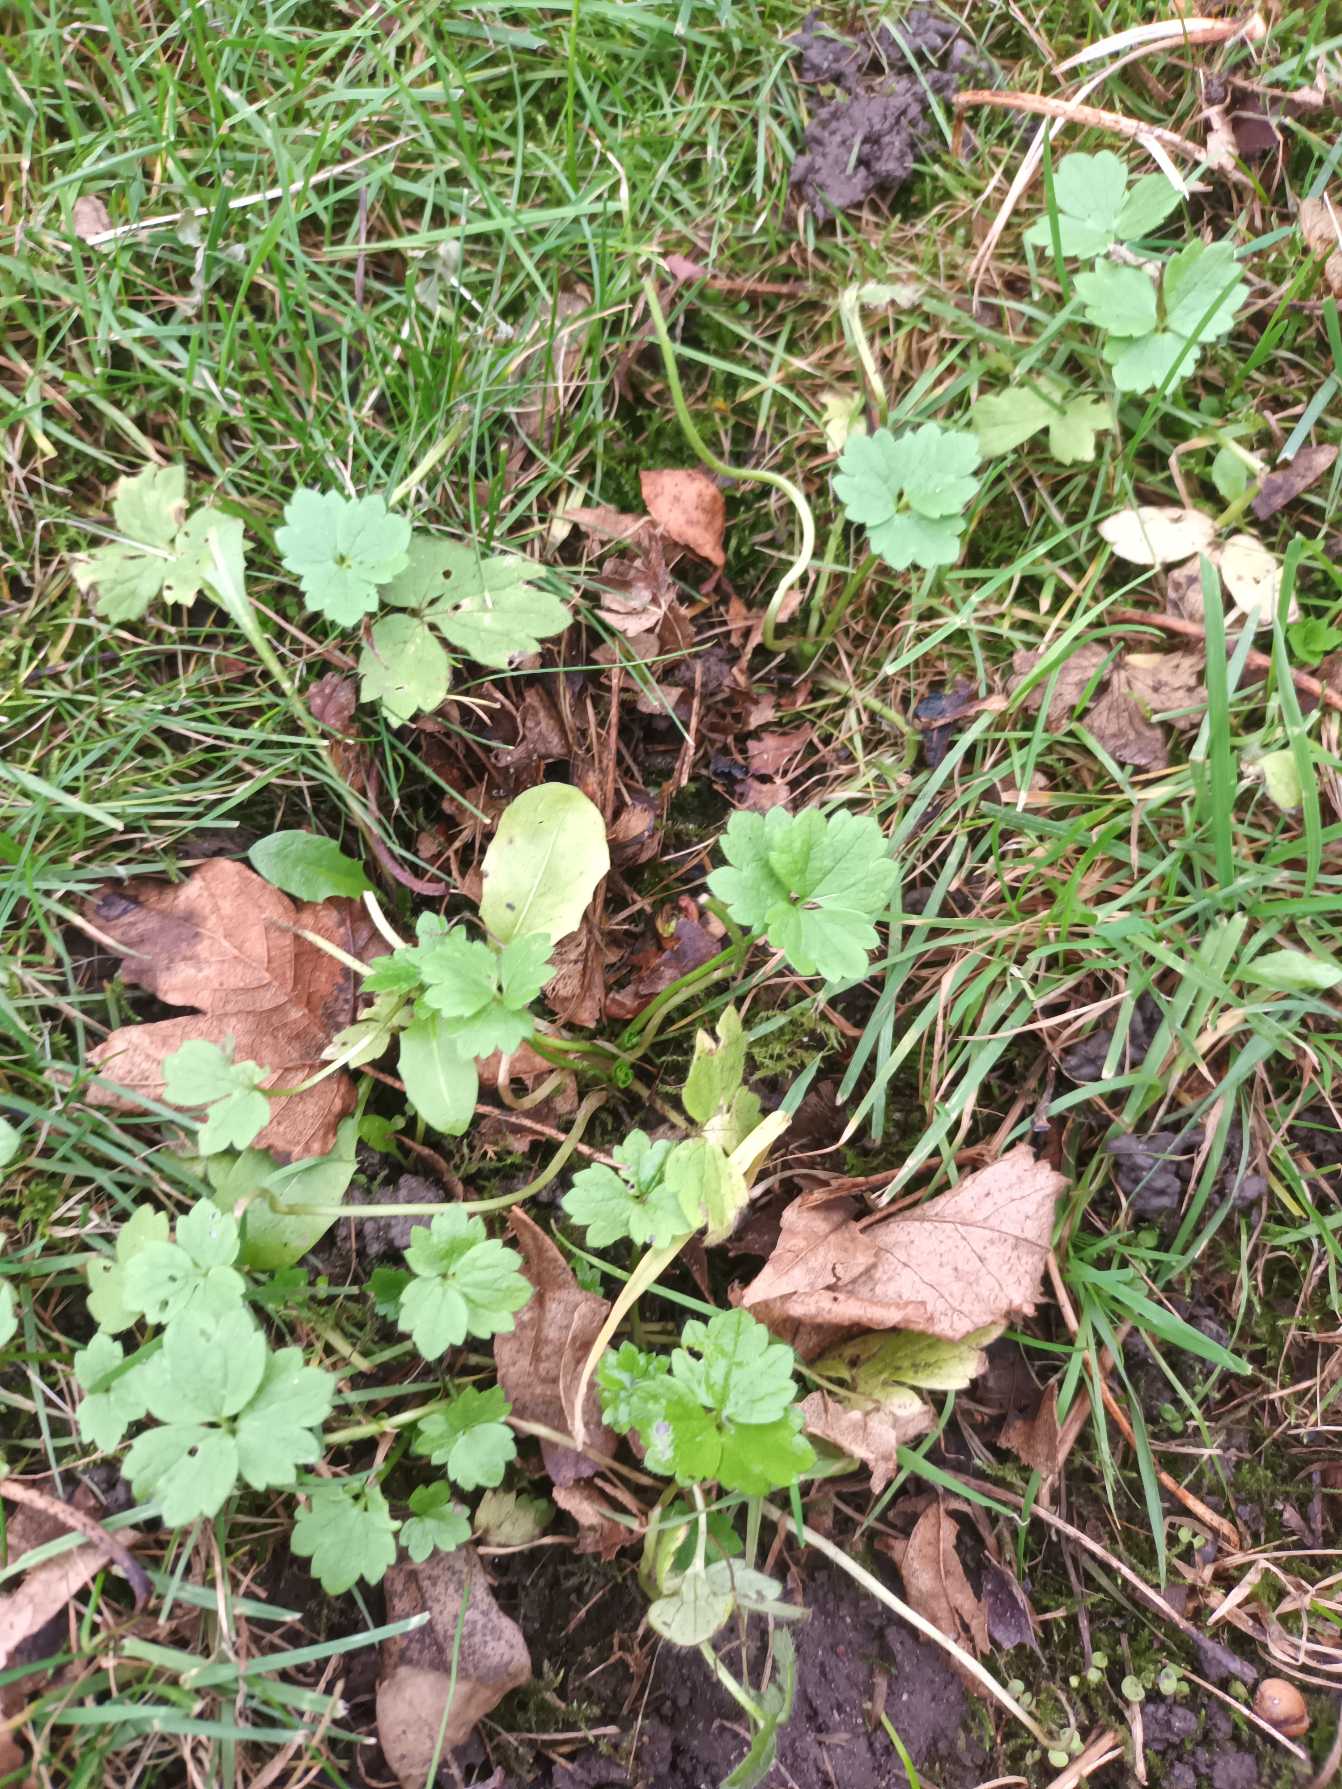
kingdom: Plantae
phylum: Tracheophyta
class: Magnoliopsida
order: Ranunculales
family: Ranunculaceae
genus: Ranunculus
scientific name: Ranunculus repens
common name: Lav ranunkel
